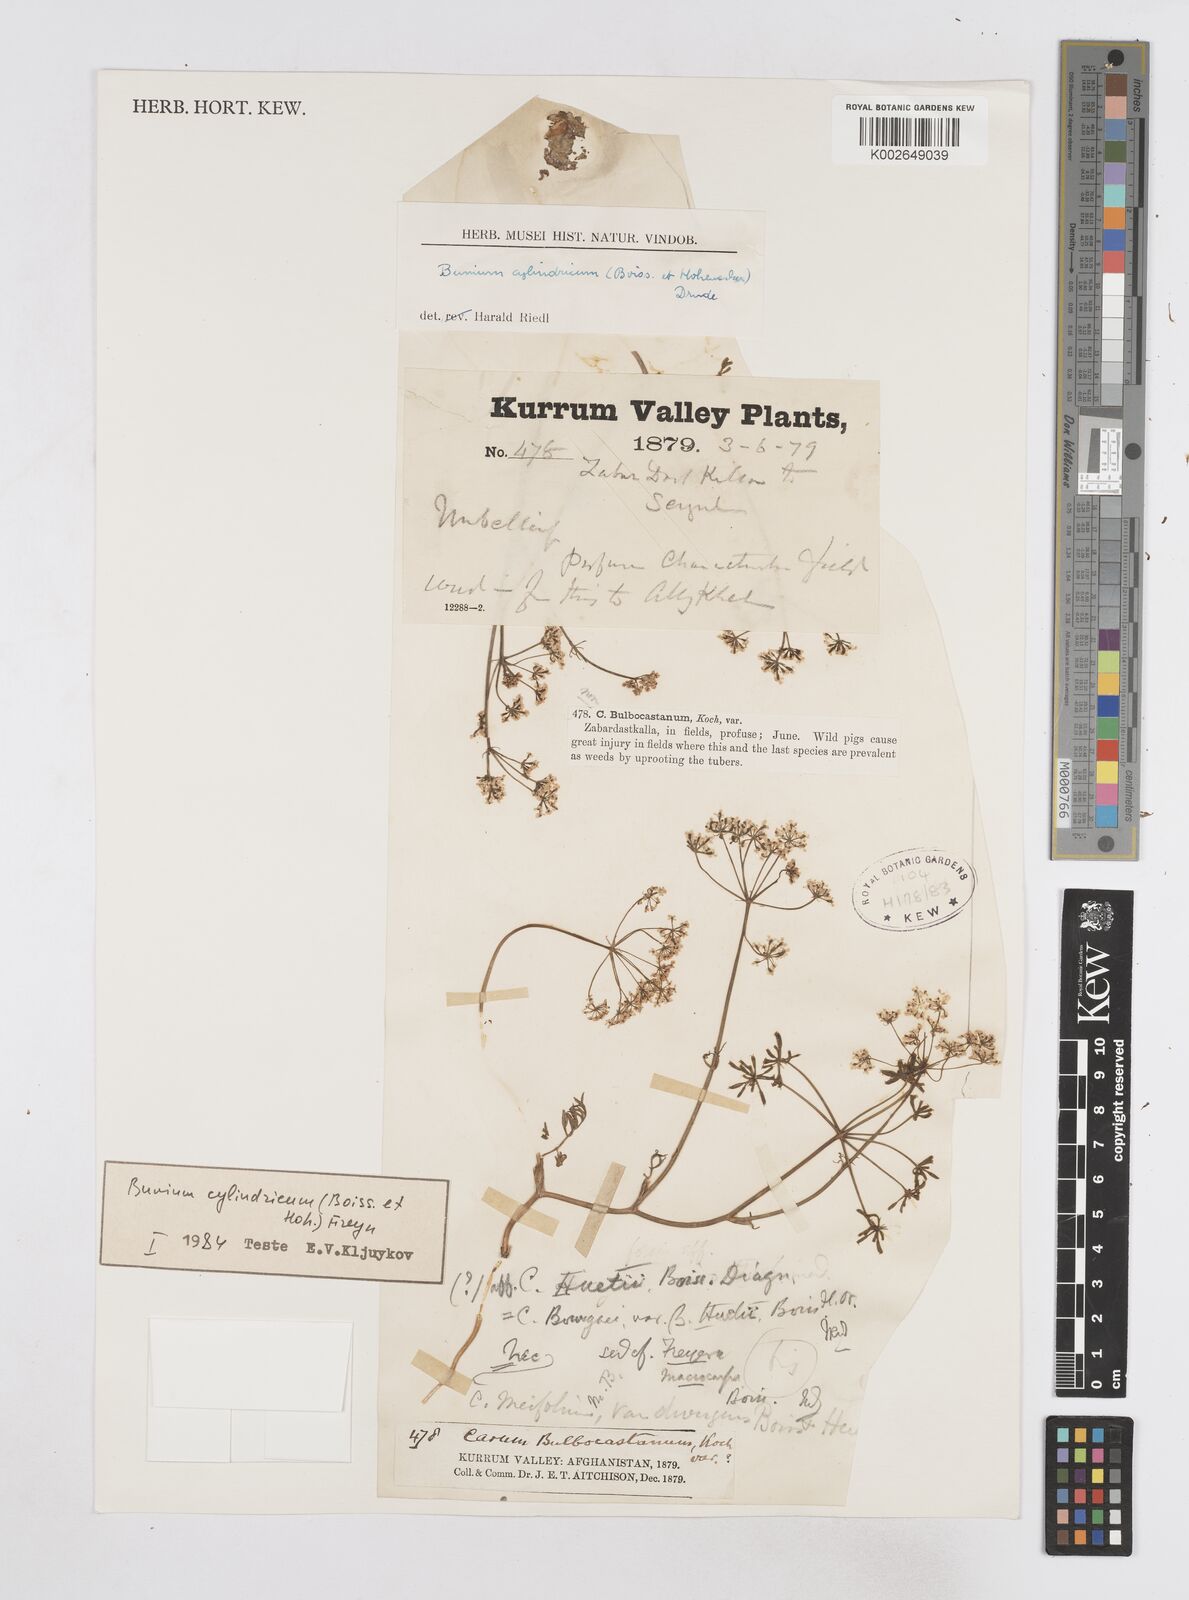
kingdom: Plantae
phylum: Tracheophyta
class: Magnoliopsida
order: Apiales
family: Apiaceae
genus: Elwendia
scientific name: Elwendia cylindrica
